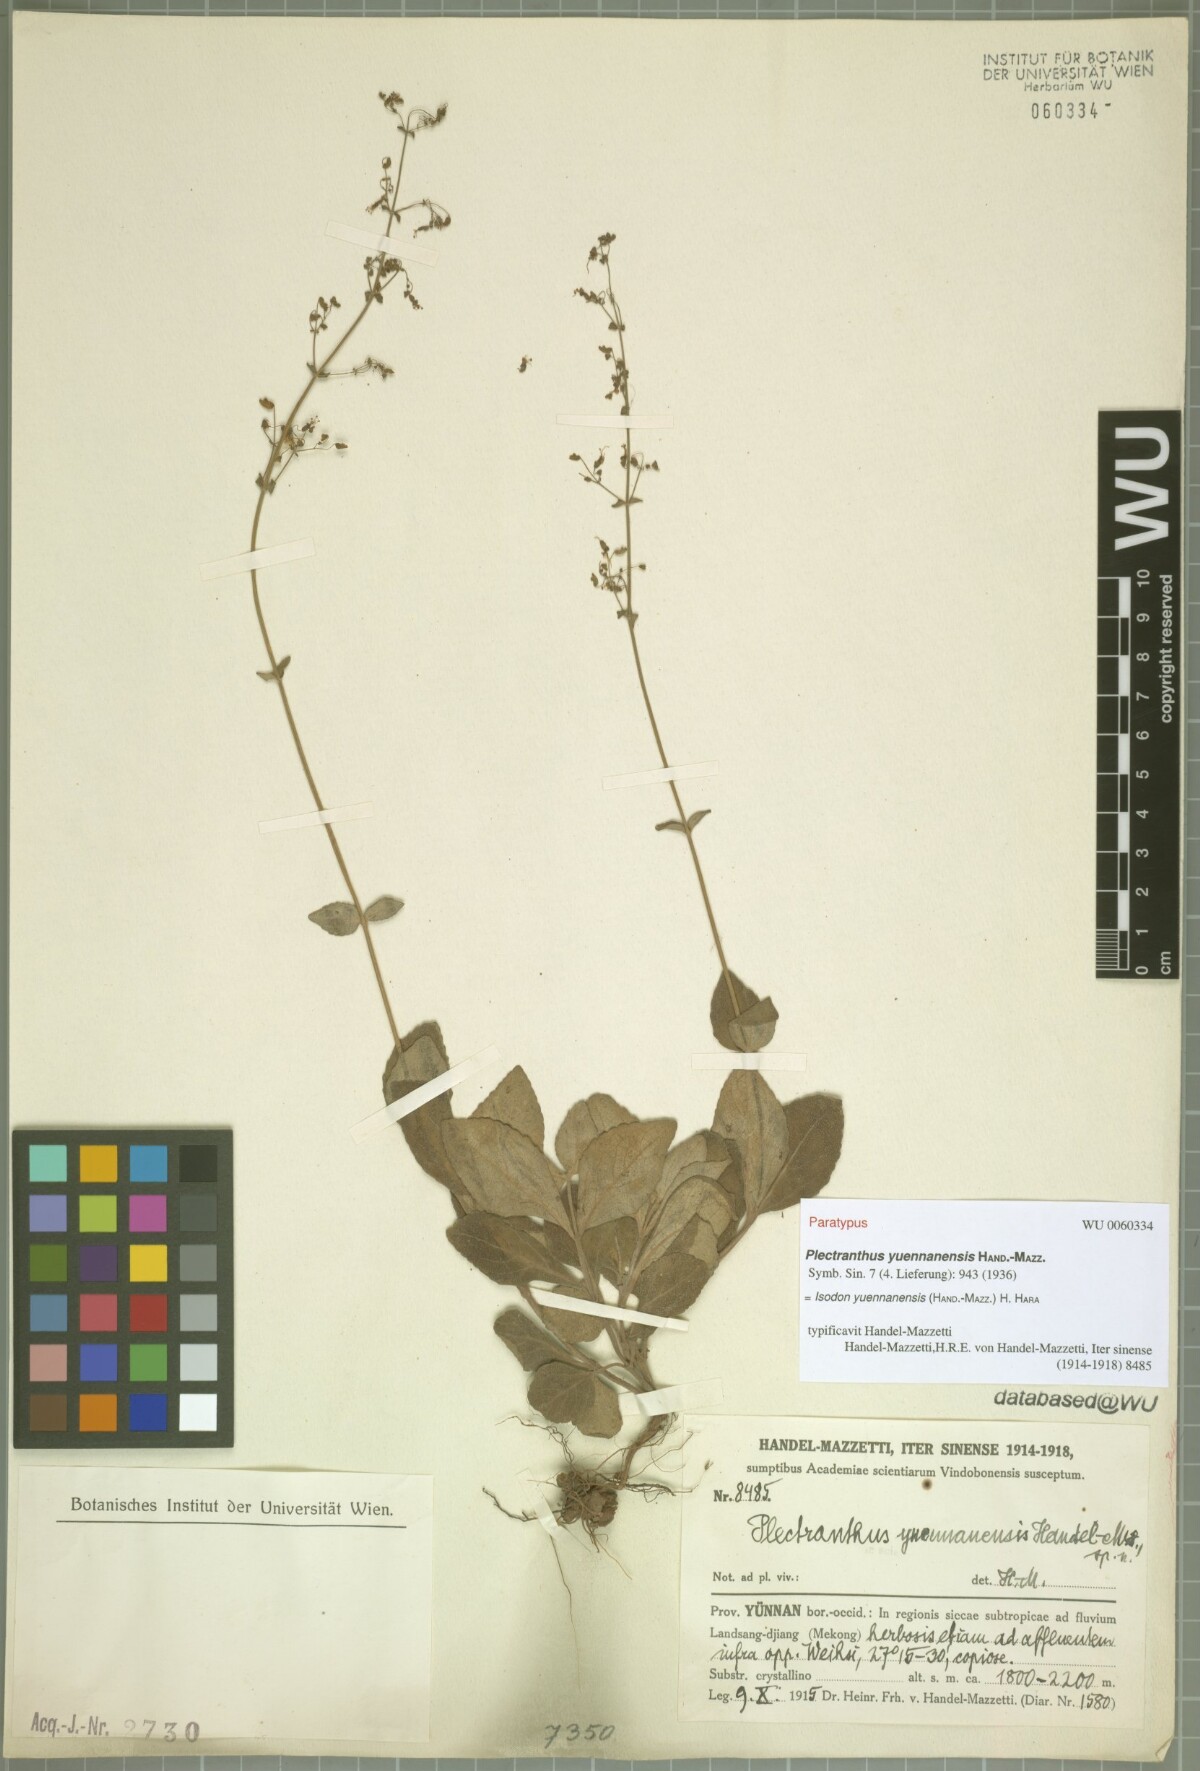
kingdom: Plantae
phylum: Tracheophyta
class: Magnoliopsida
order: Lamiales
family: Lamiaceae
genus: Isodon
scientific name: Isodon yuennanensis
